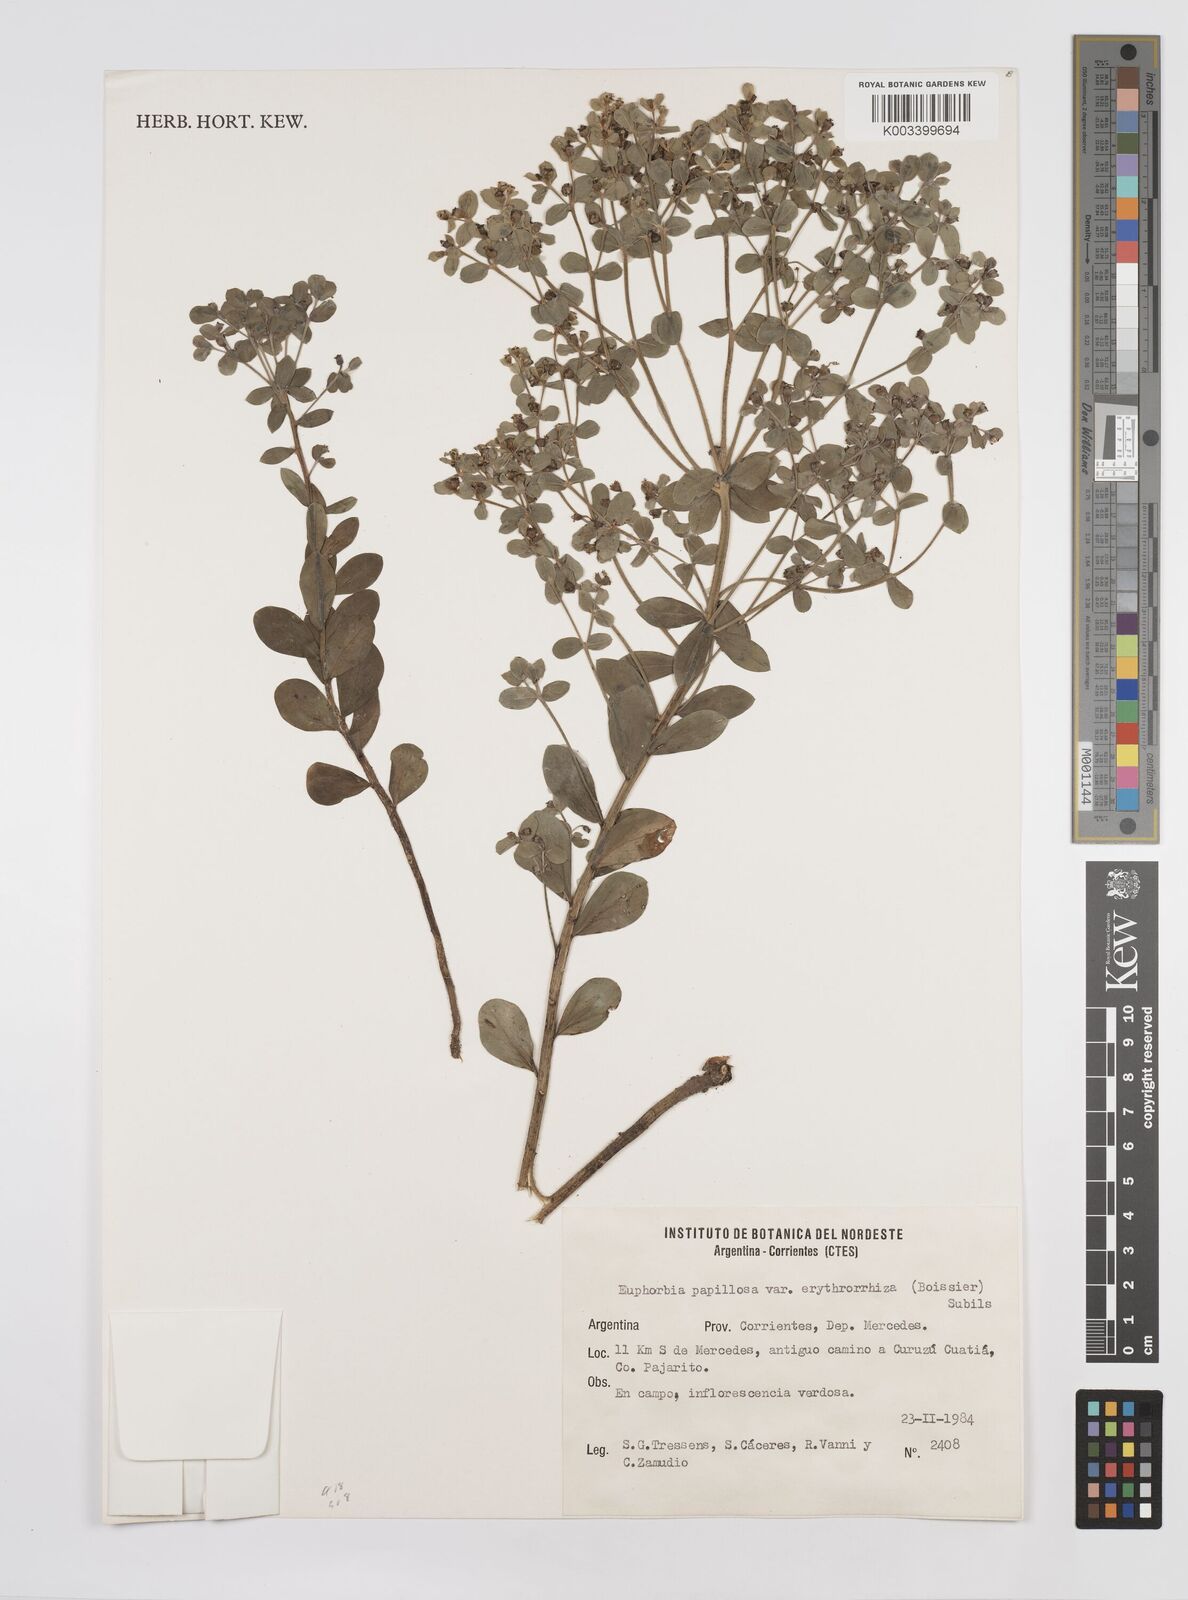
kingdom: Plantae
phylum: Tracheophyta
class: Magnoliopsida
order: Malpighiales
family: Euphorbiaceae
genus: Euphorbia
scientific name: Euphorbia papillosa
